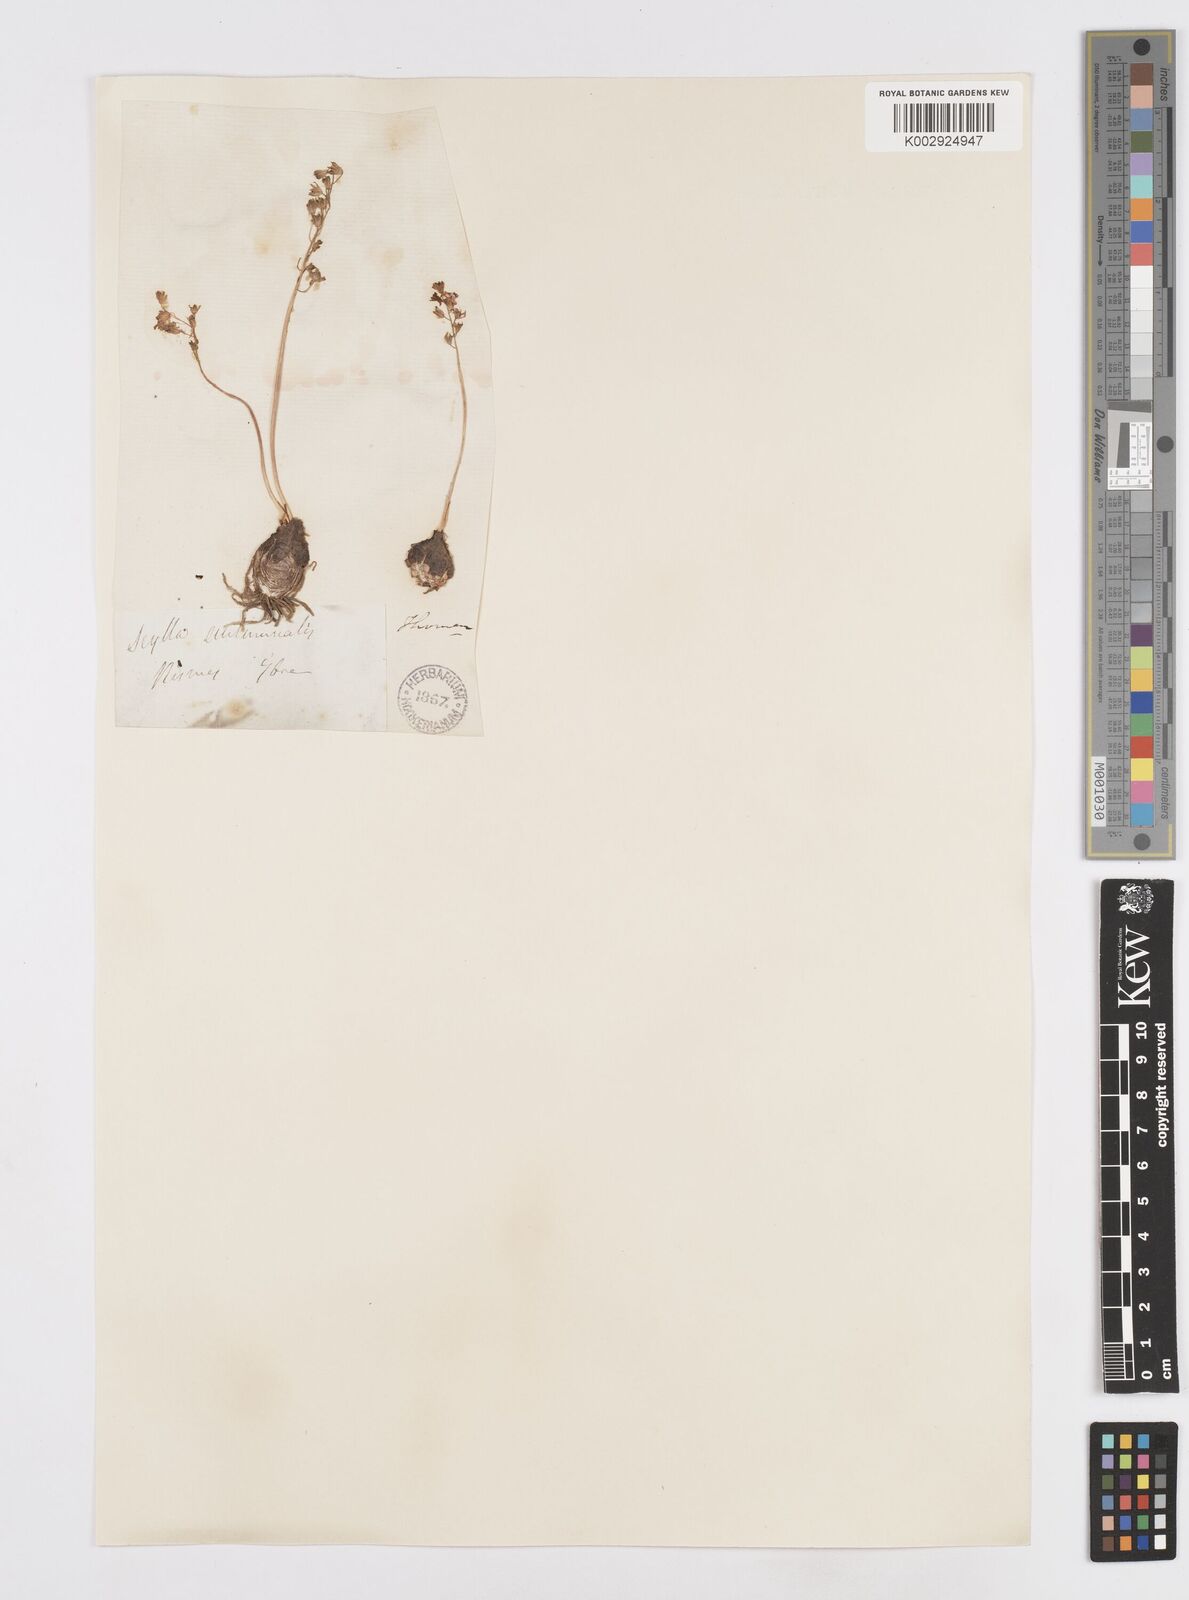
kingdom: Plantae
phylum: Tracheophyta
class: Liliopsida
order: Asparagales
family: Asparagaceae
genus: Prospero
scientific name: Prospero autumnale
